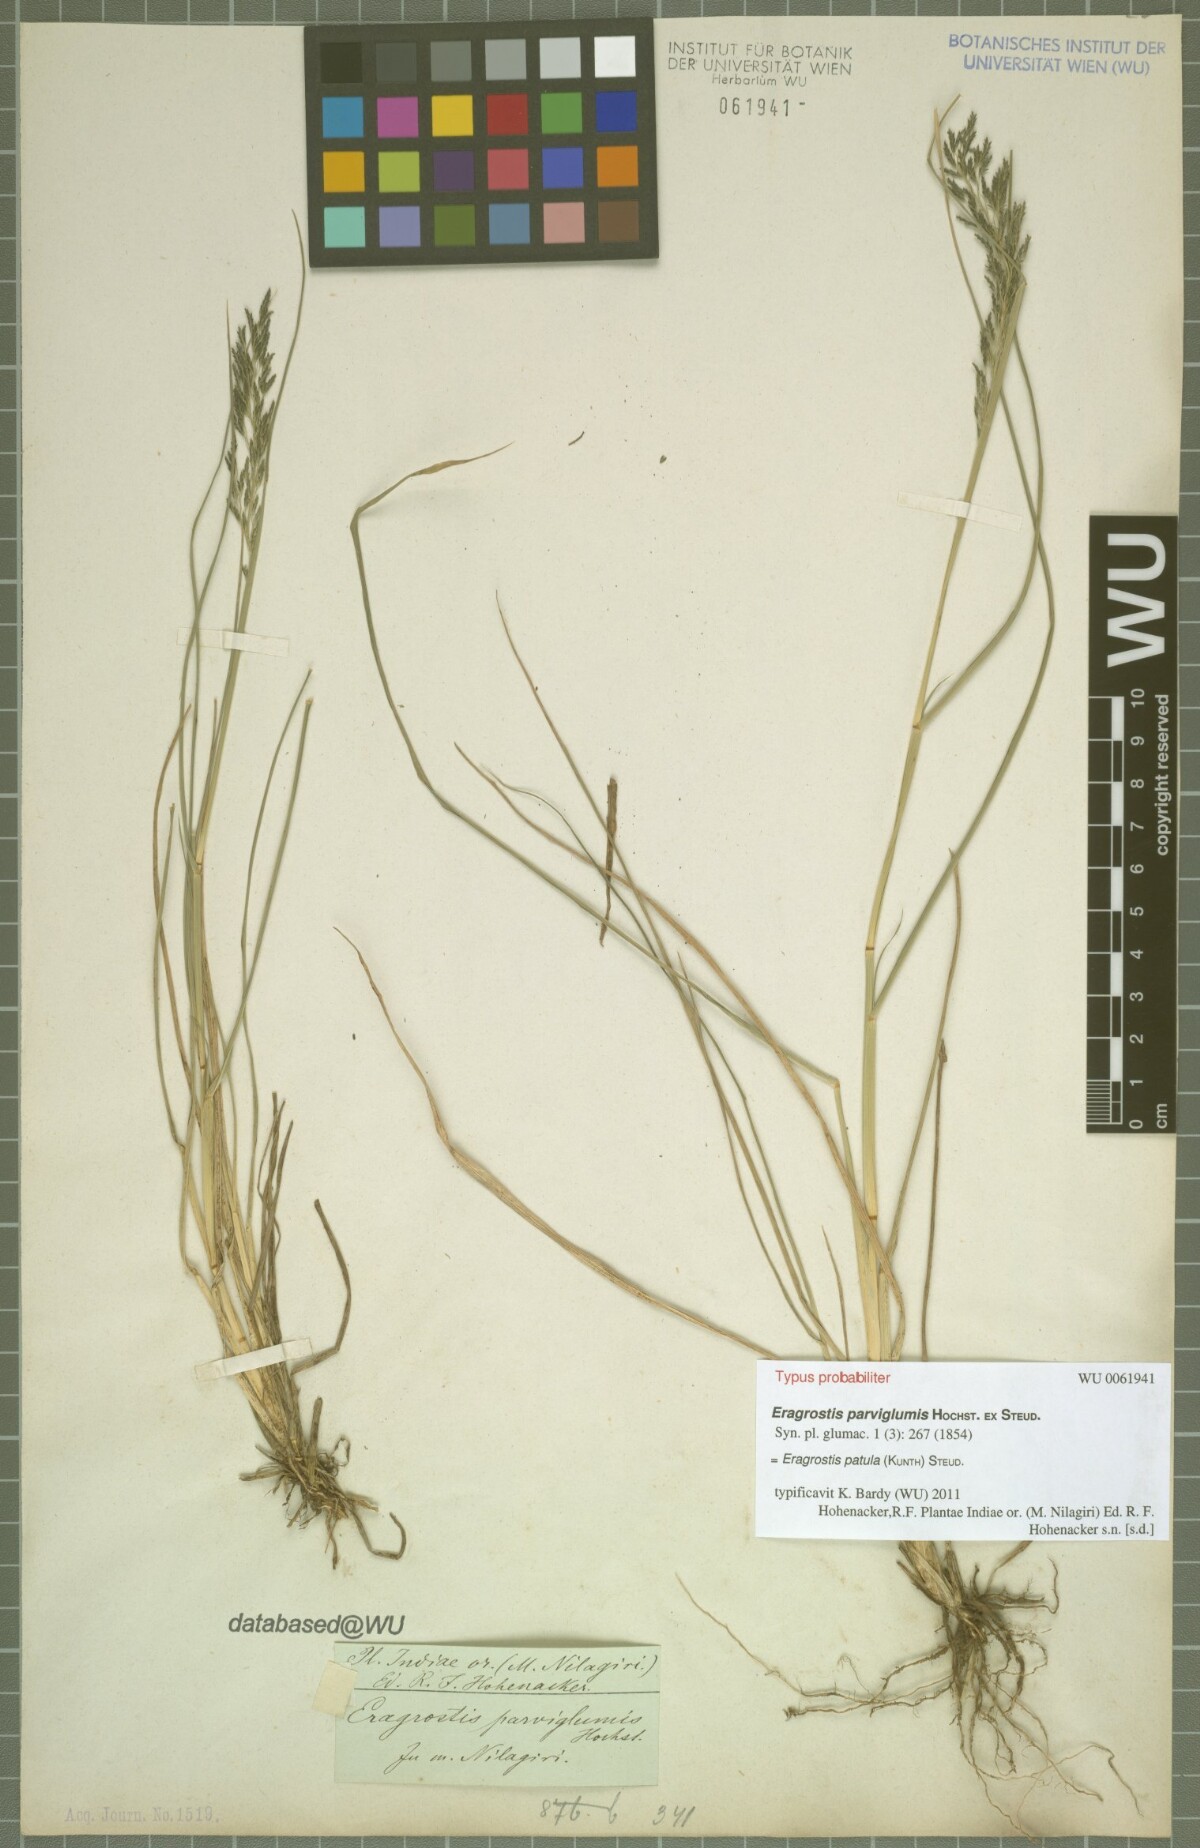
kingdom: Plantae
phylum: Tracheophyta
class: Liliopsida
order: Poales
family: Poaceae
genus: Eragrostis
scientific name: Eragrostis tenuifolia
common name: Elastic grass
